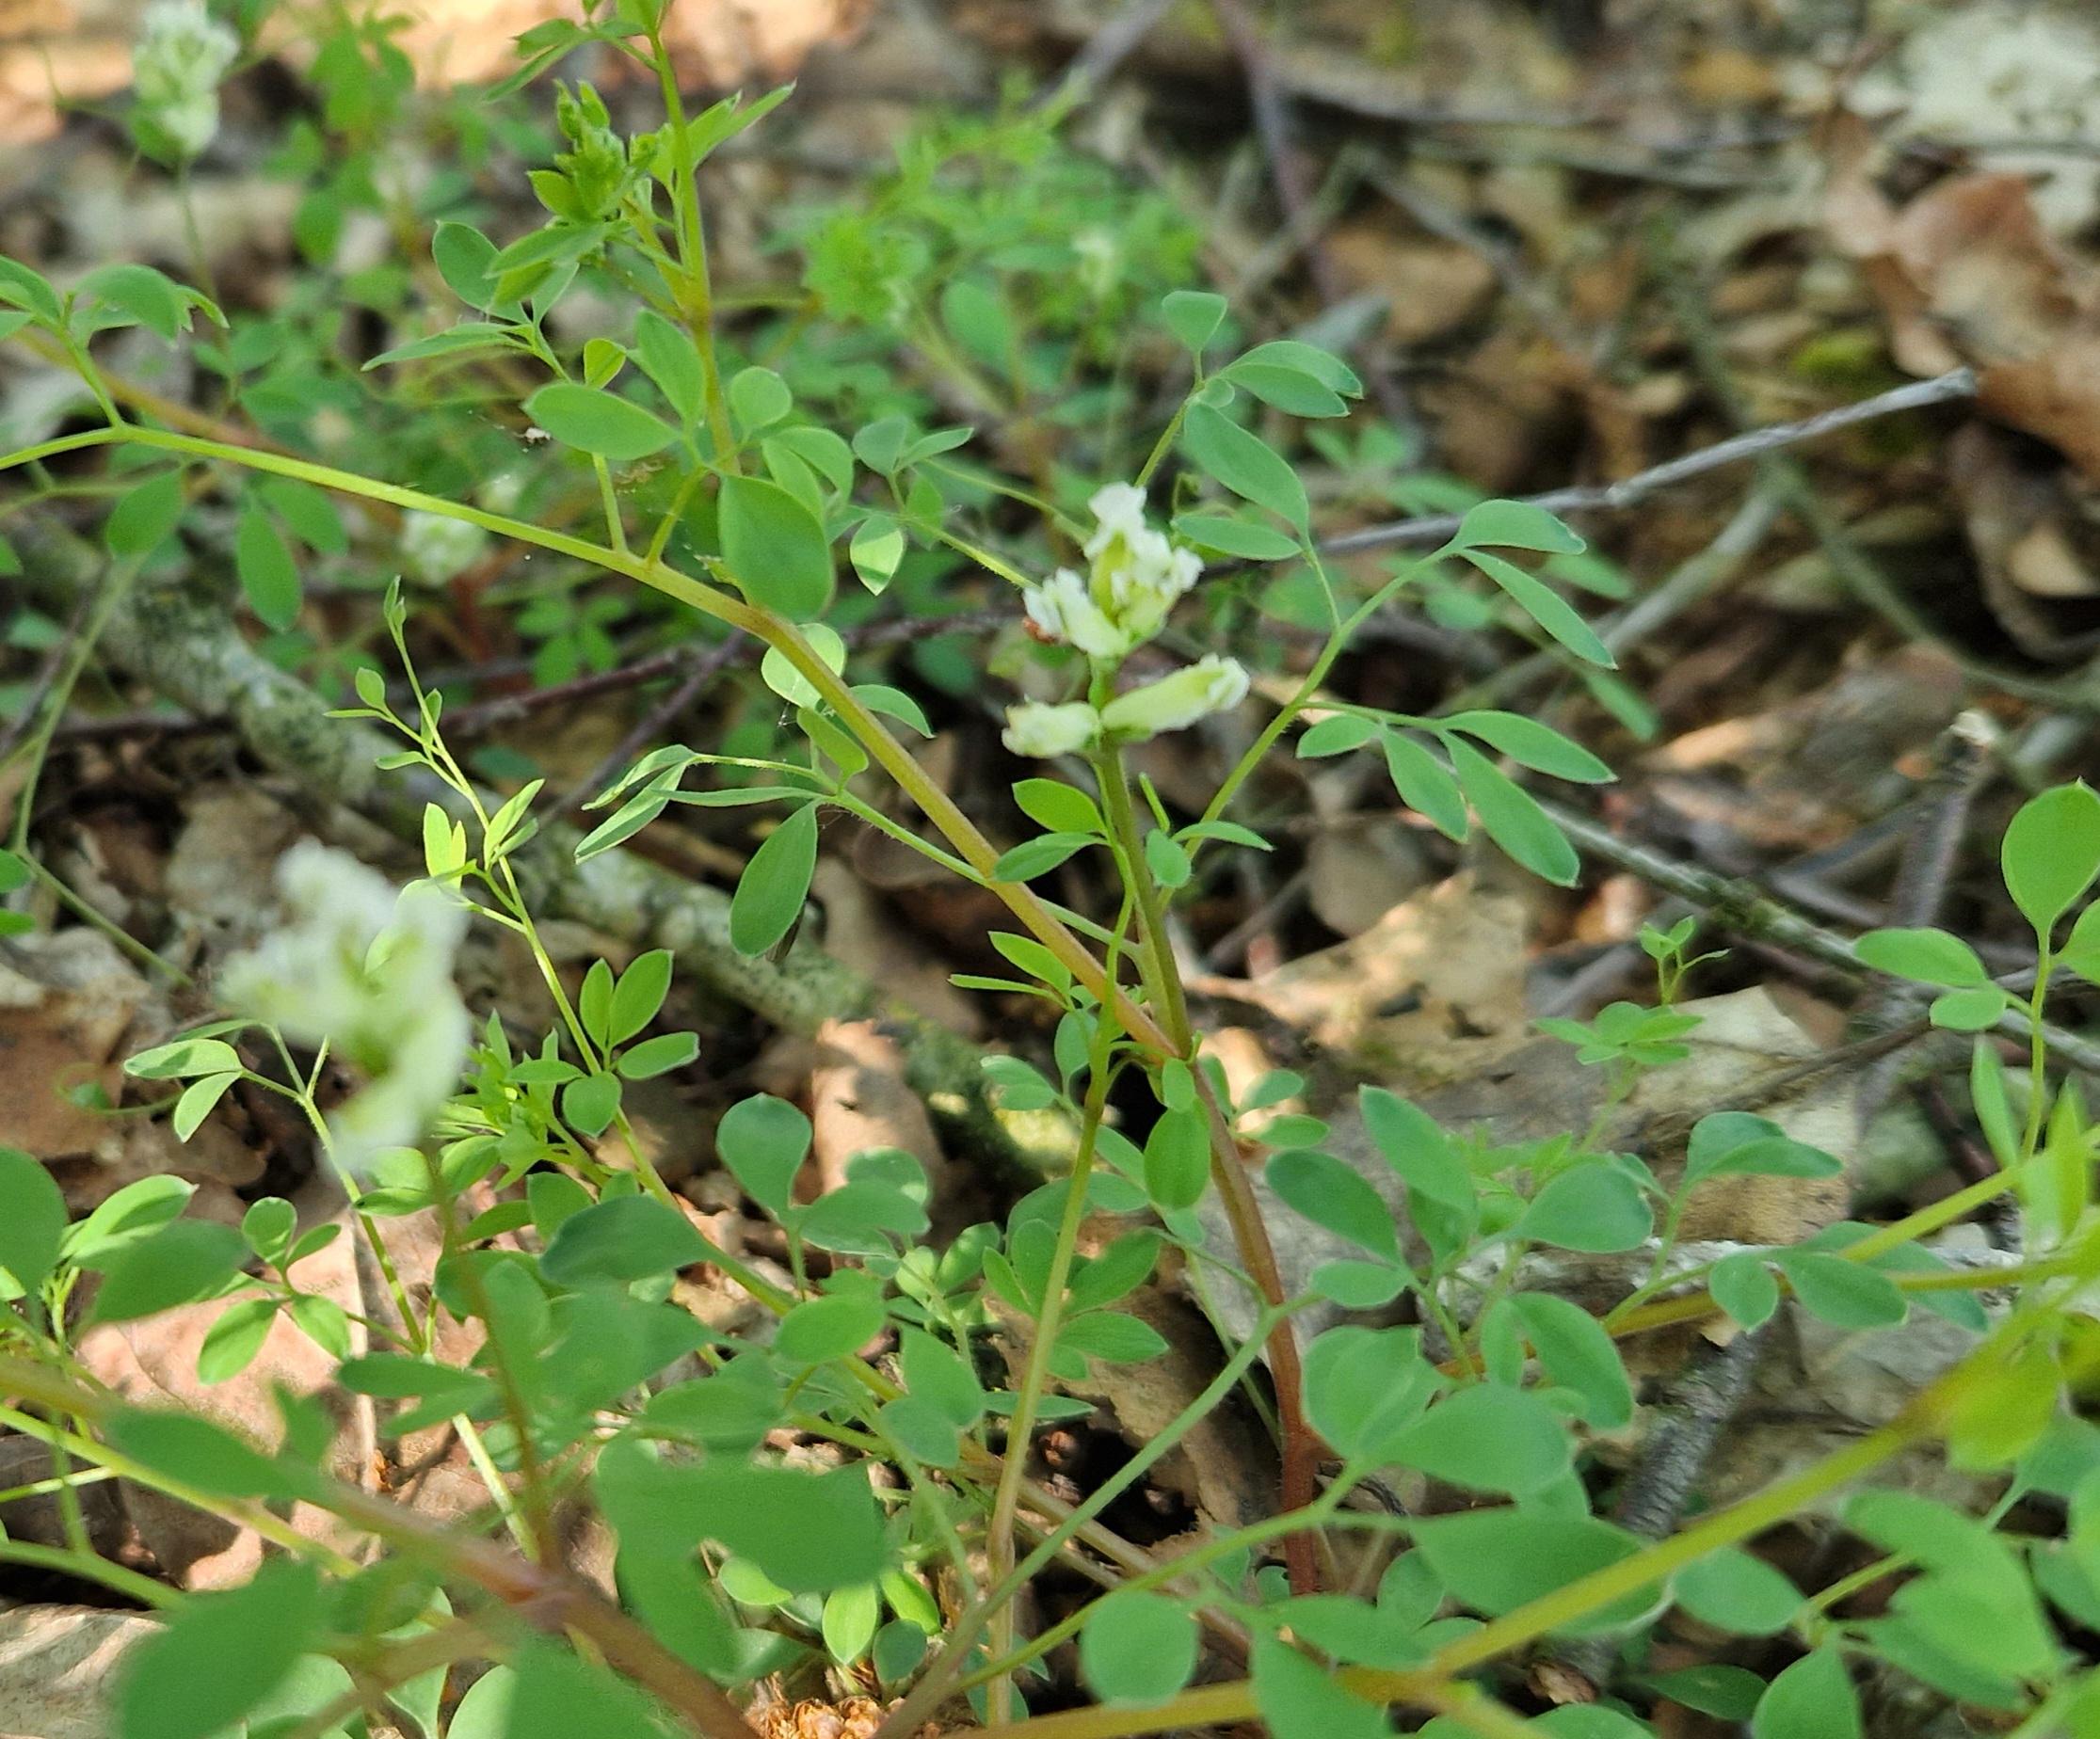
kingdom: Plantae
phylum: Tracheophyta
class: Magnoliopsida
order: Ranunculales
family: Papaveraceae
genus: Ceratocapnos
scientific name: Ceratocapnos claviculata
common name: Klatrende lærkespore
